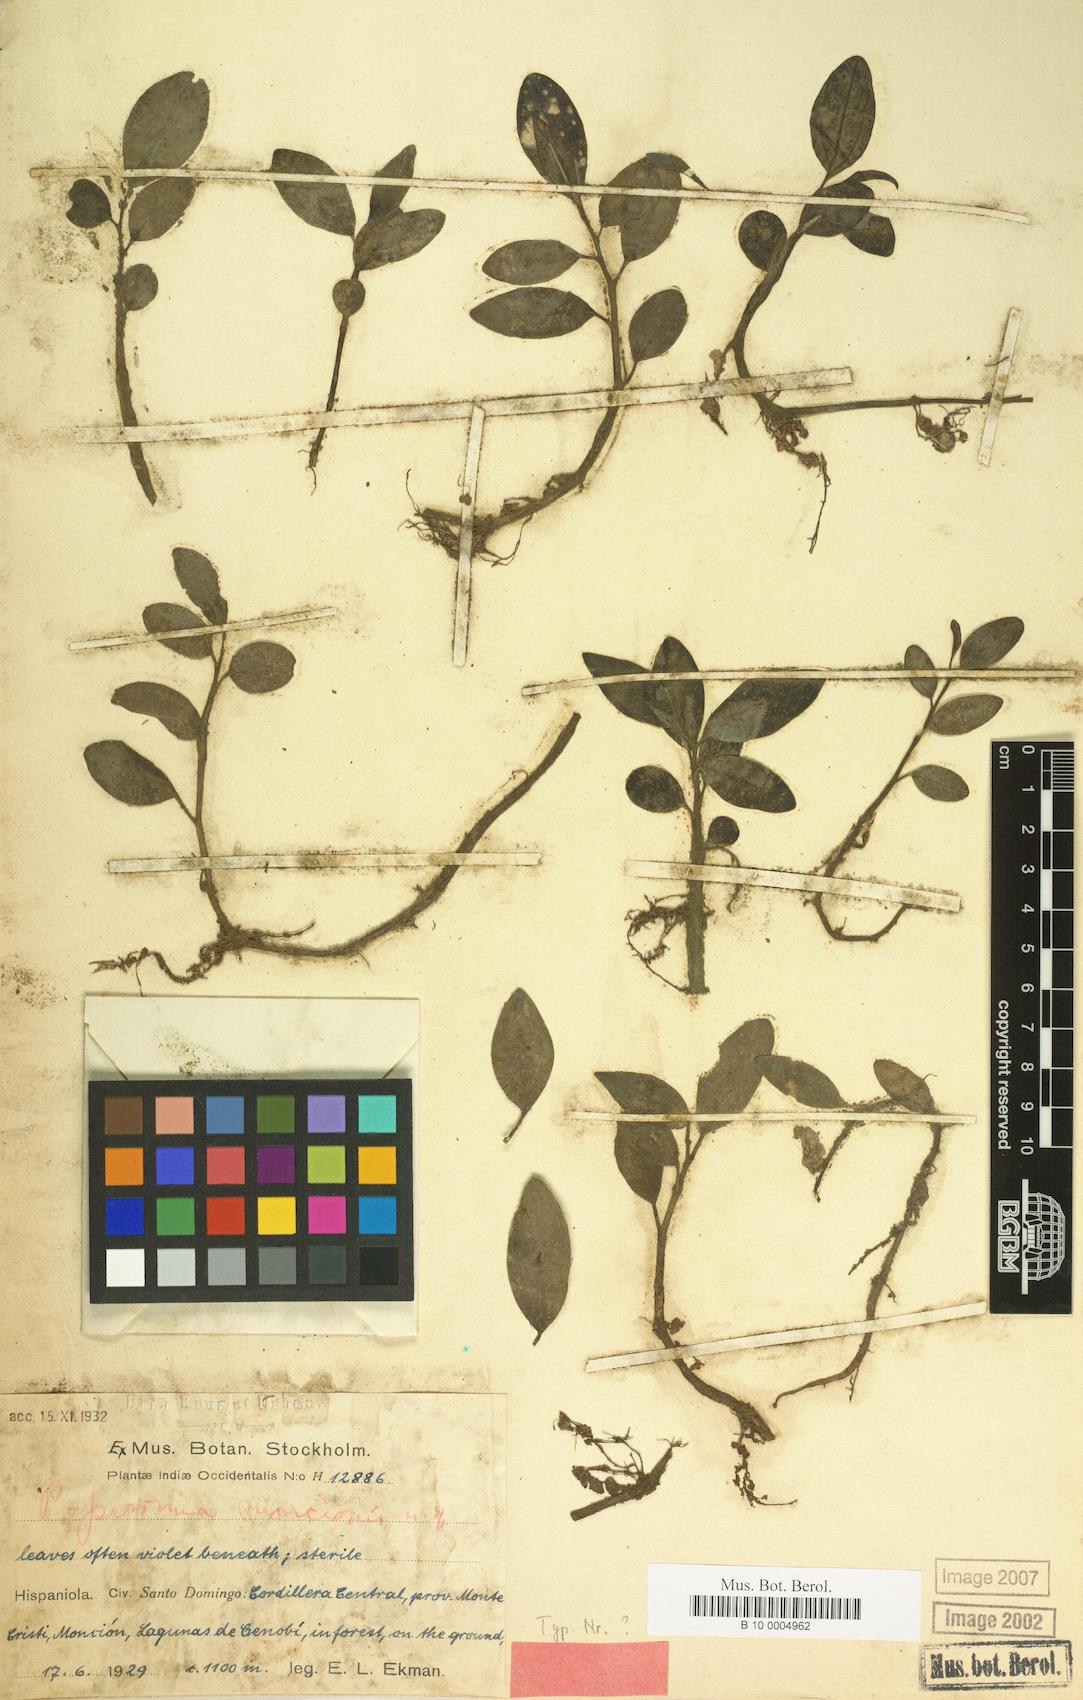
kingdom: Plantae
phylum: Tracheophyta
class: Magnoliopsida
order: Piperales
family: Piperaceae
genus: Peperomia
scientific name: Peperomia nizaitoensis
